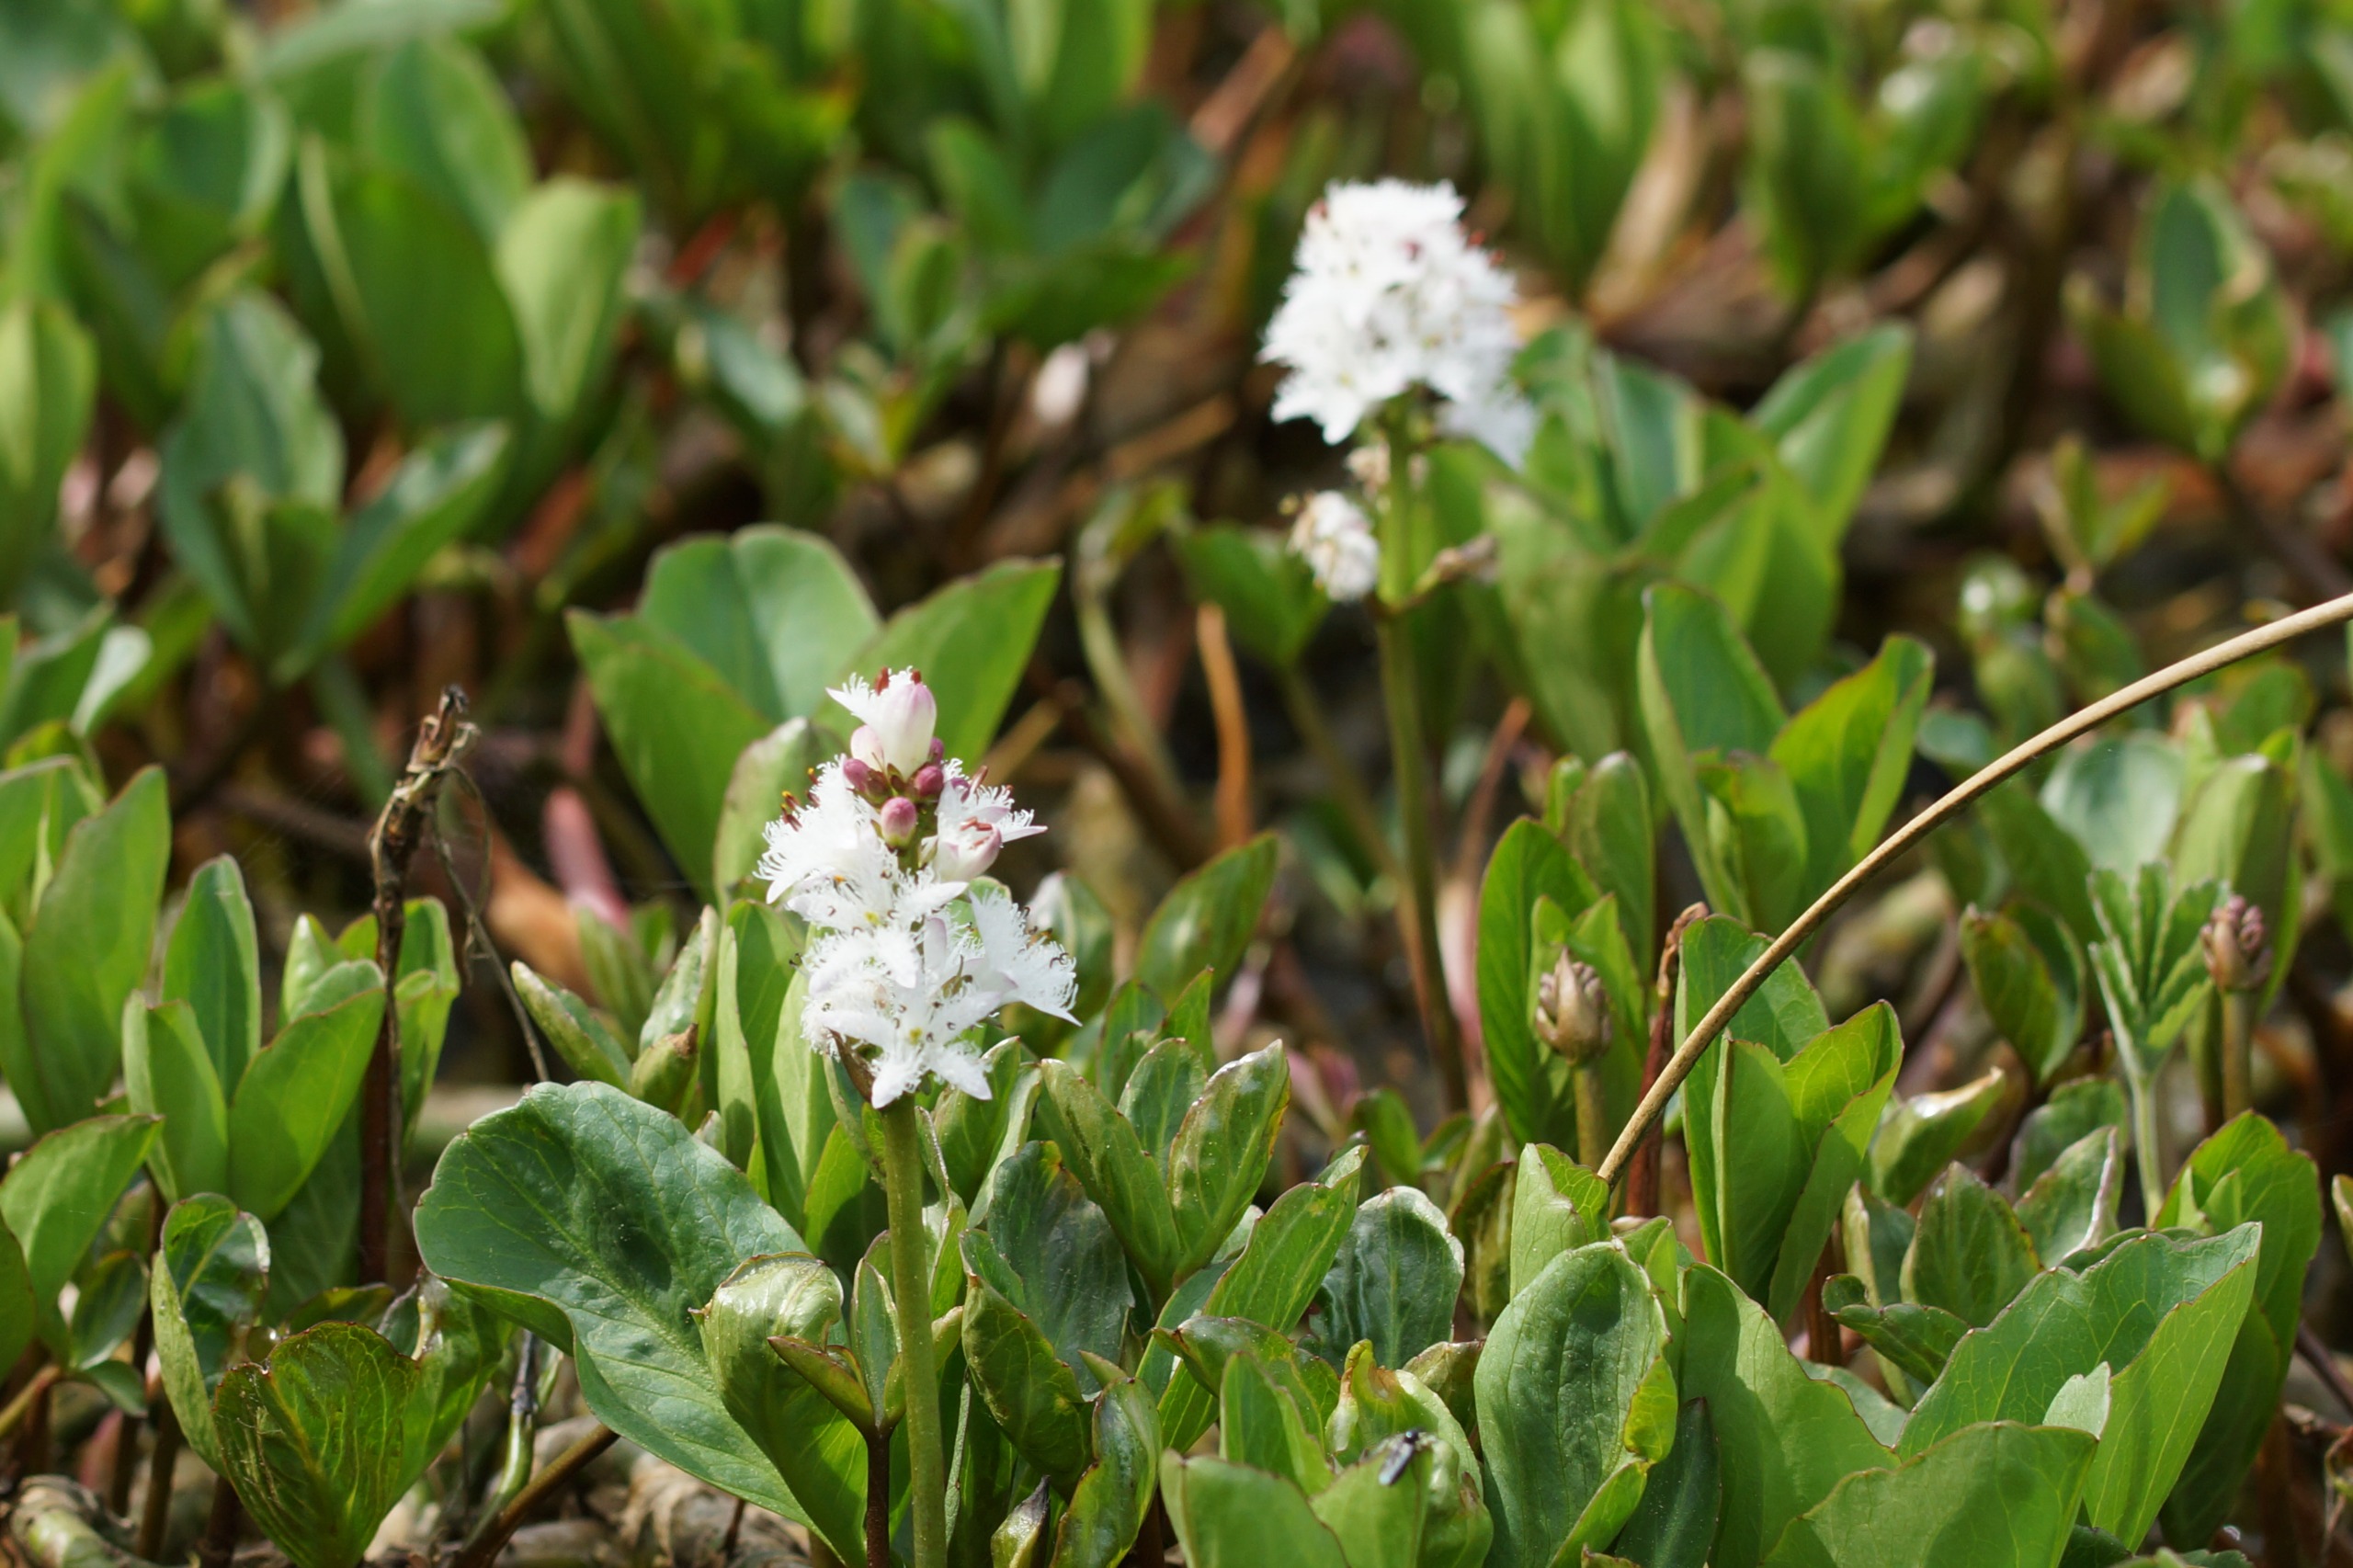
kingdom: Plantae
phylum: Tracheophyta
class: Magnoliopsida
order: Asterales
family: Menyanthaceae
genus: Menyanthes
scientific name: Menyanthes trifoliata
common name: Bukkeblad
